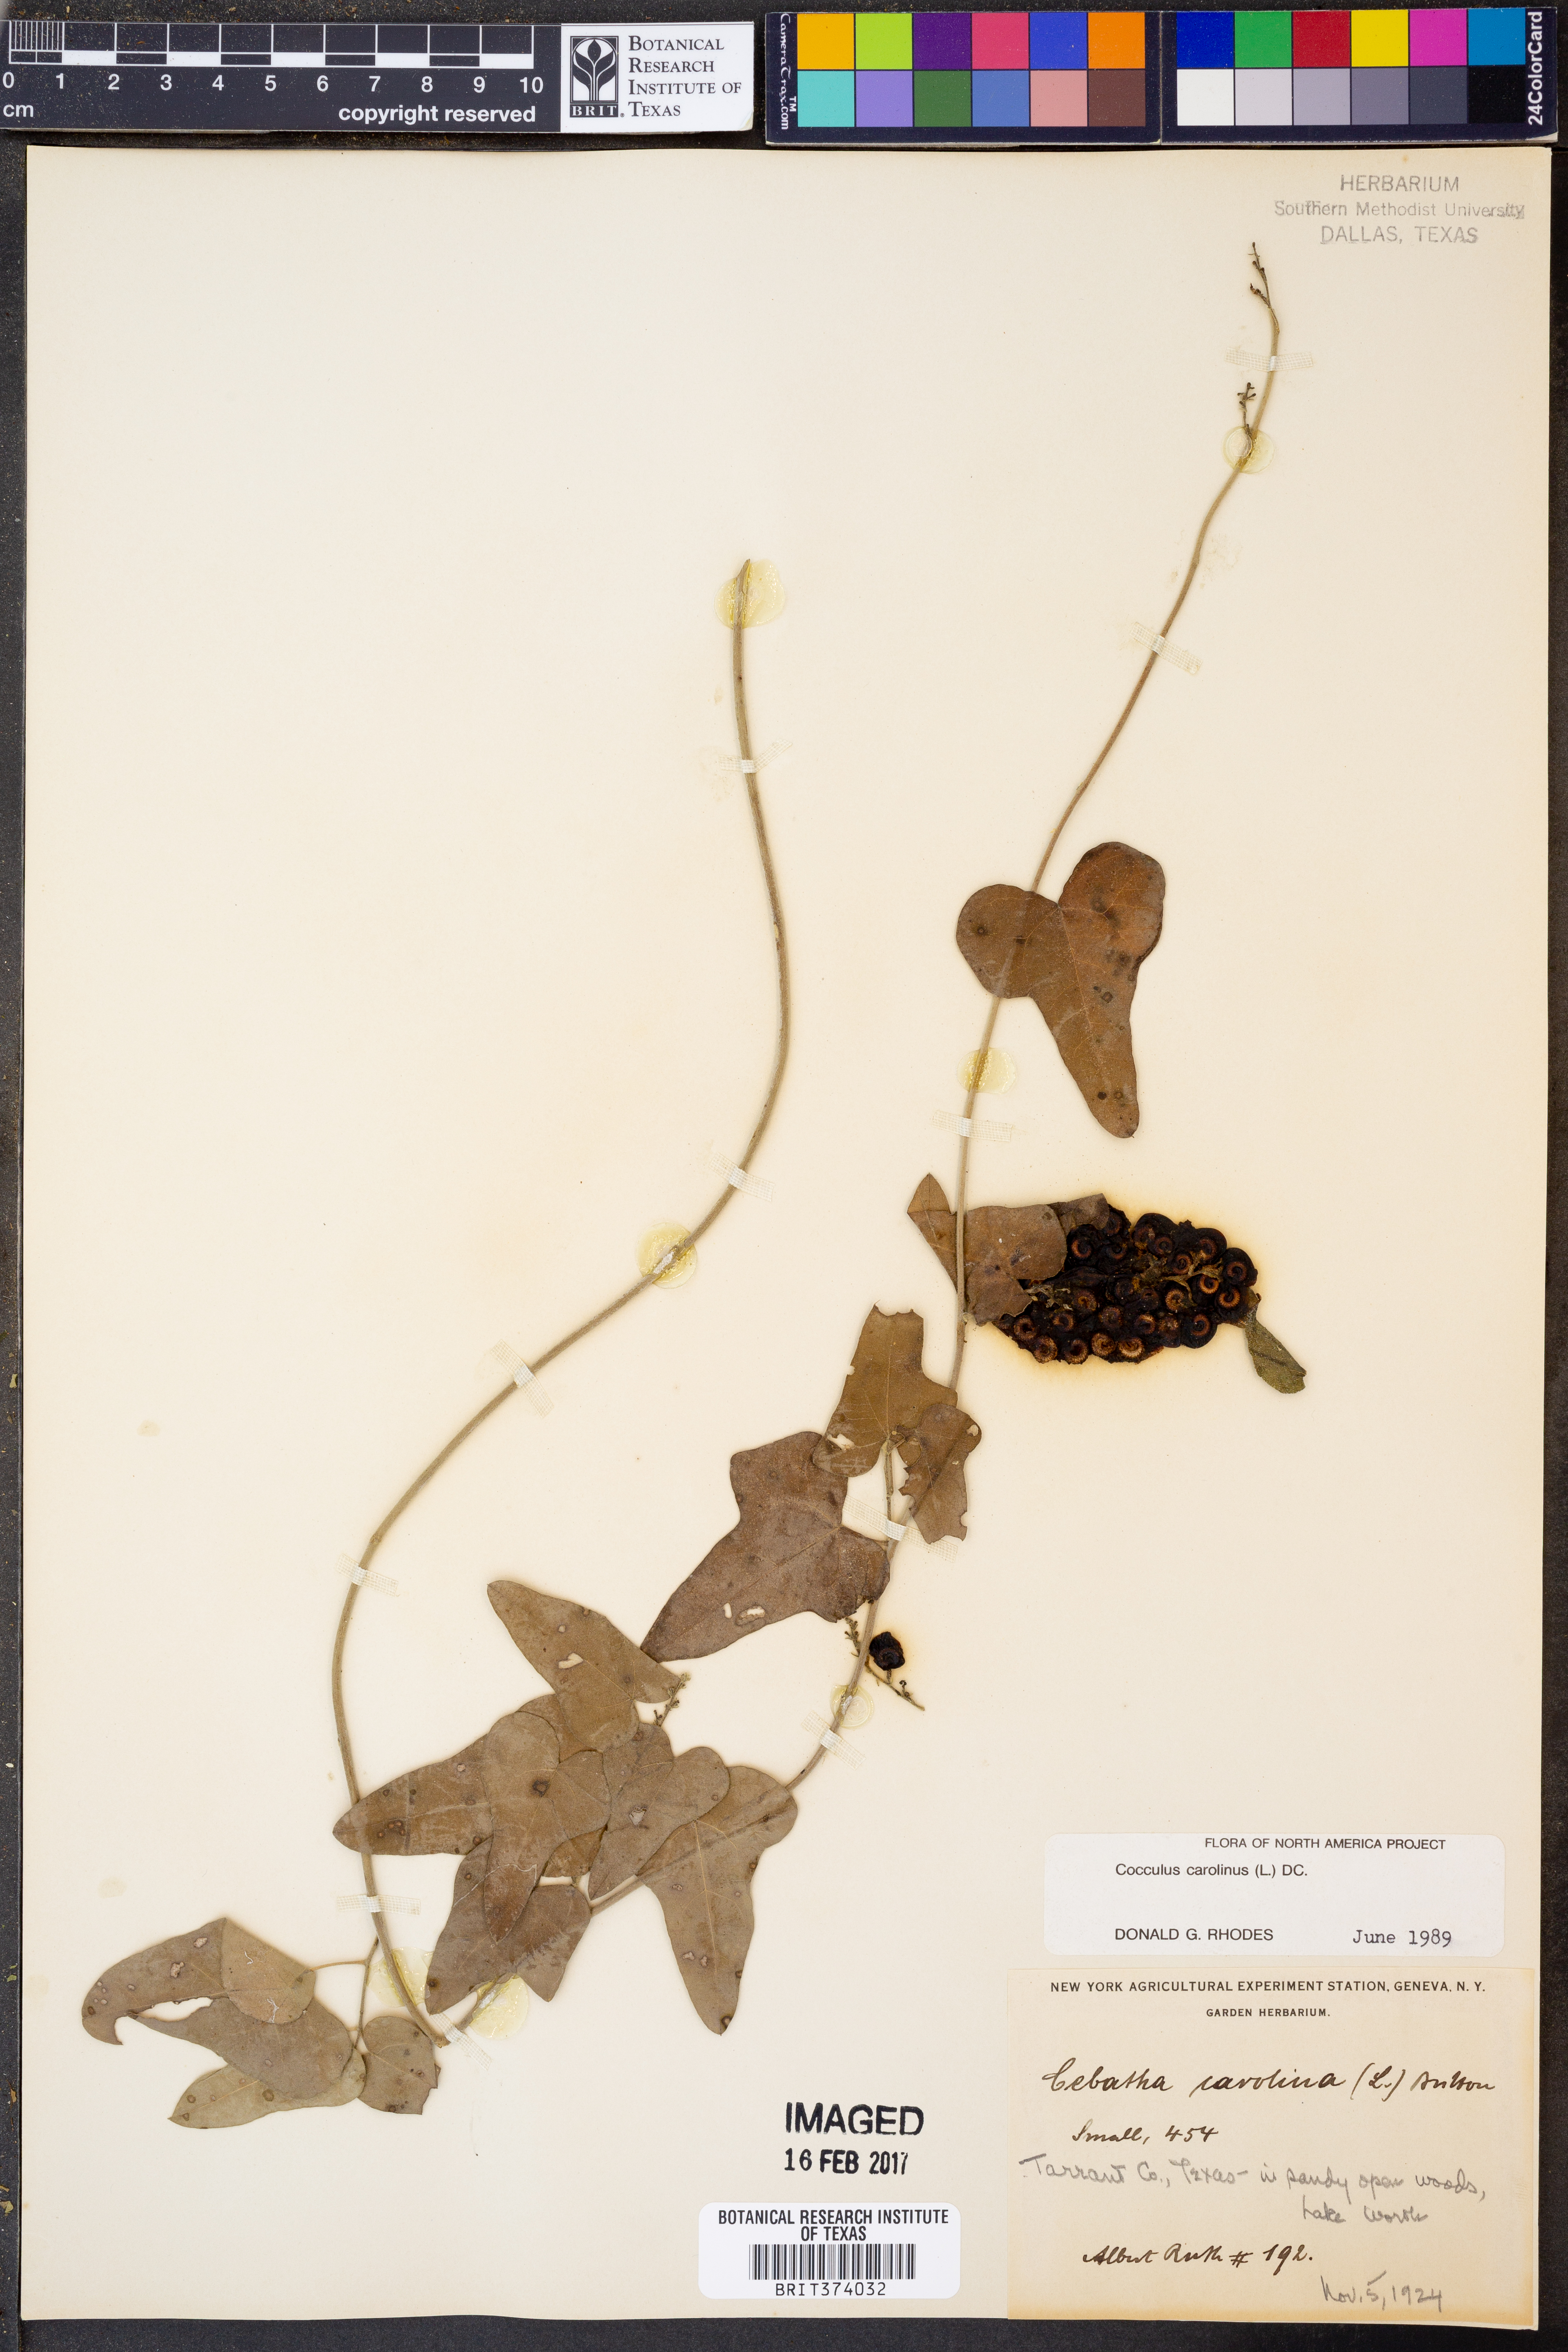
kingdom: Plantae
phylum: Tracheophyta
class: Magnoliopsida
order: Ranunculales
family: Menispermaceae
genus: Cocculus
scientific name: Cocculus carolinus
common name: Carolina moonseed
